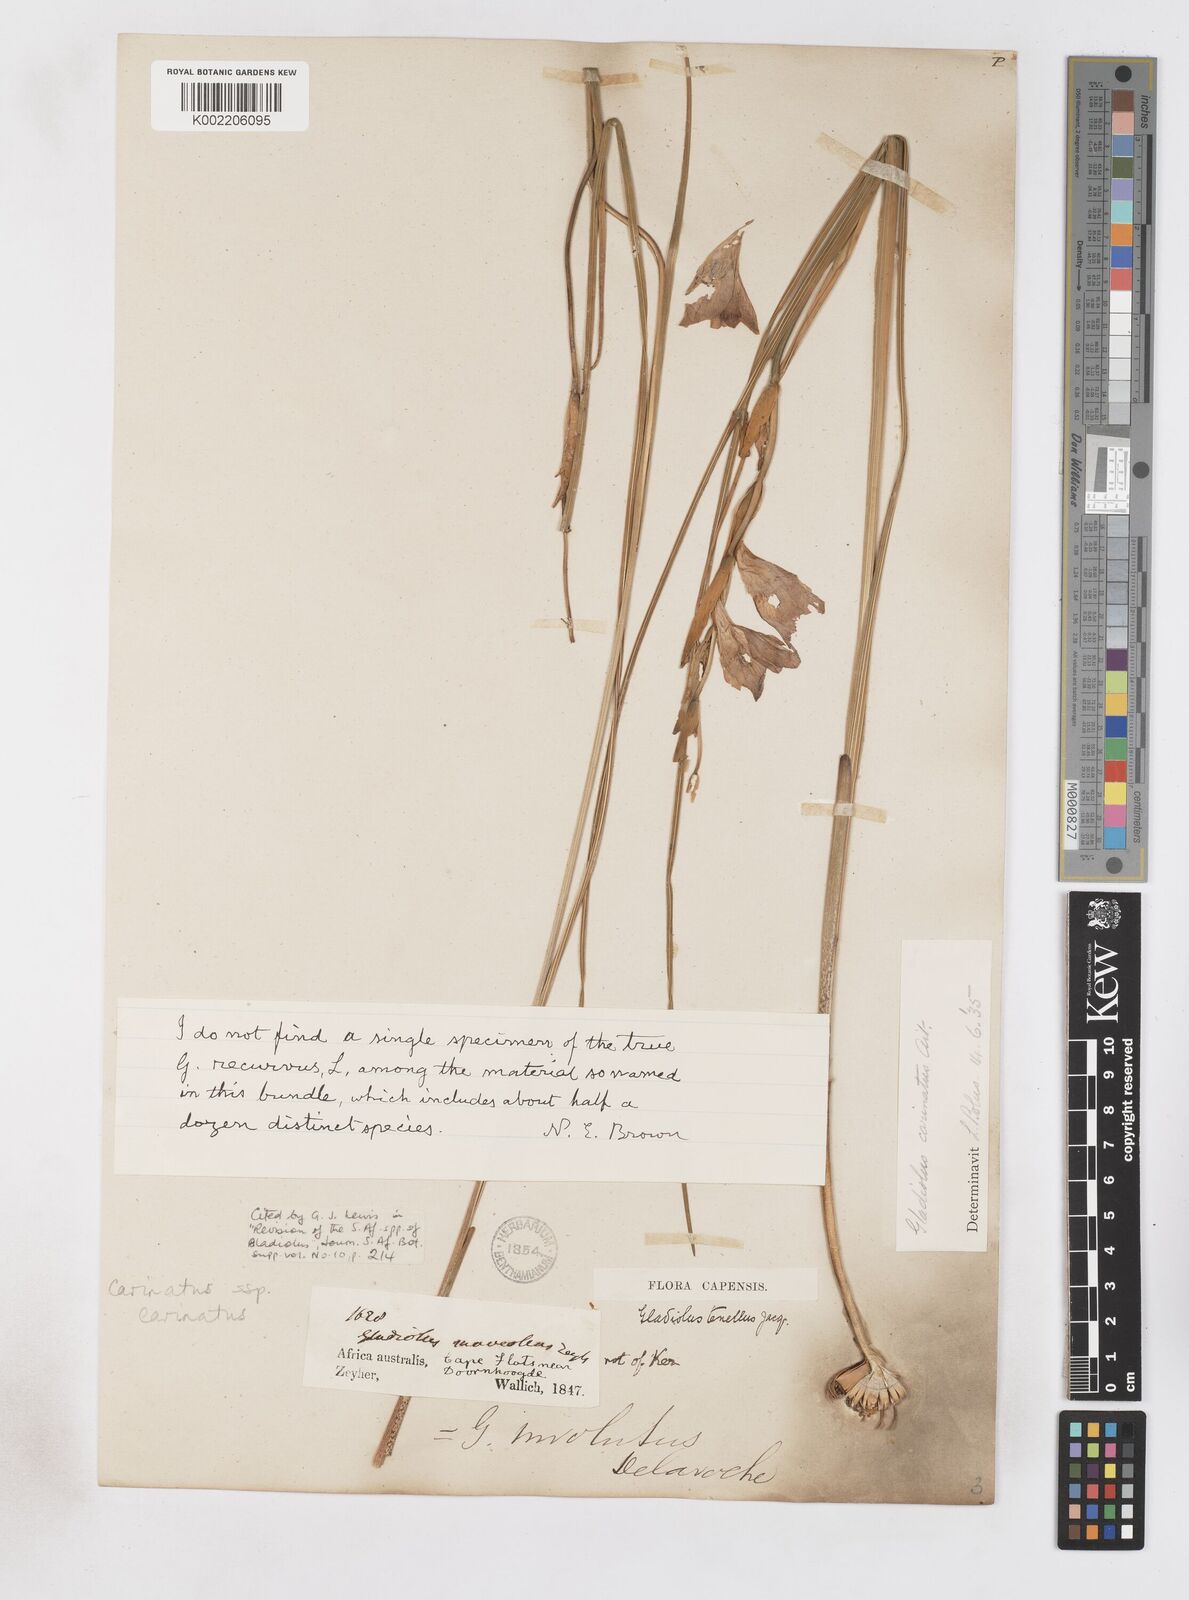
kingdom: Plantae
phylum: Tracheophyta
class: Liliopsida
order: Asparagales
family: Iridaceae
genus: Gladiolus
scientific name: Gladiolus carinatus
